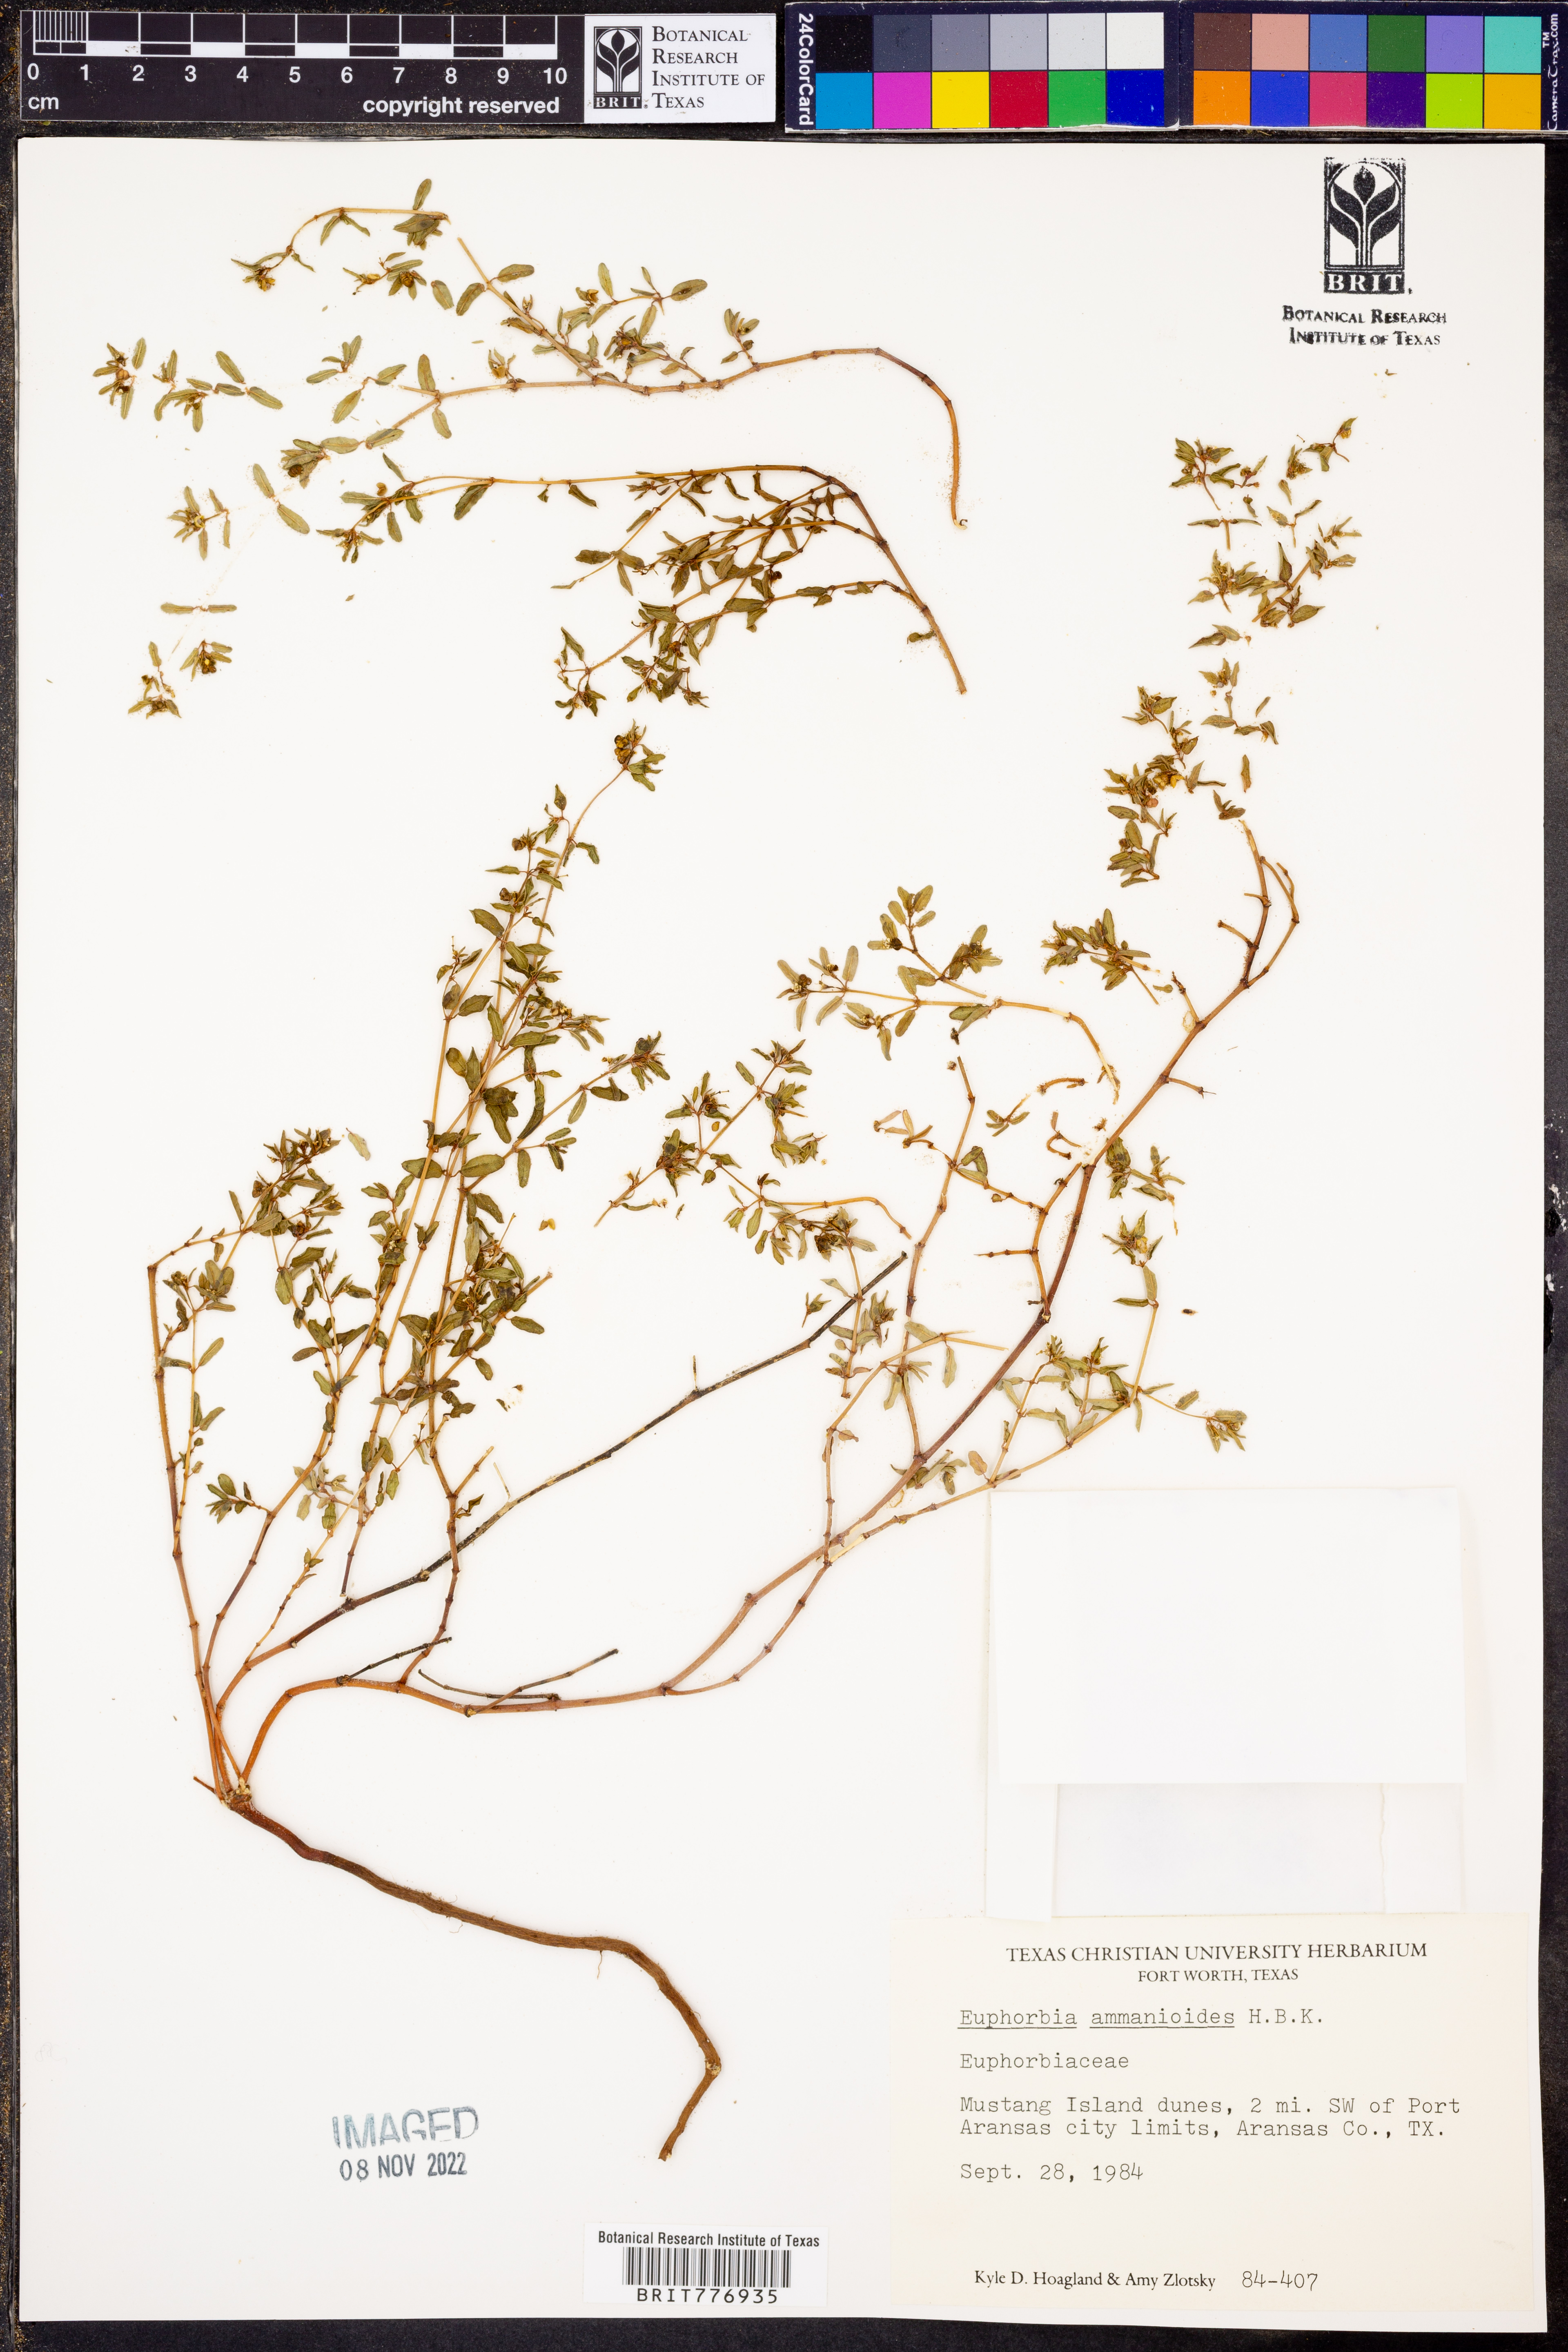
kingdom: Plantae
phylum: Tracheophyta
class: Magnoliopsida
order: Malpighiales
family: Euphorbiaceae
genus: Euphorbia
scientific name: Euphorbia bombensis
